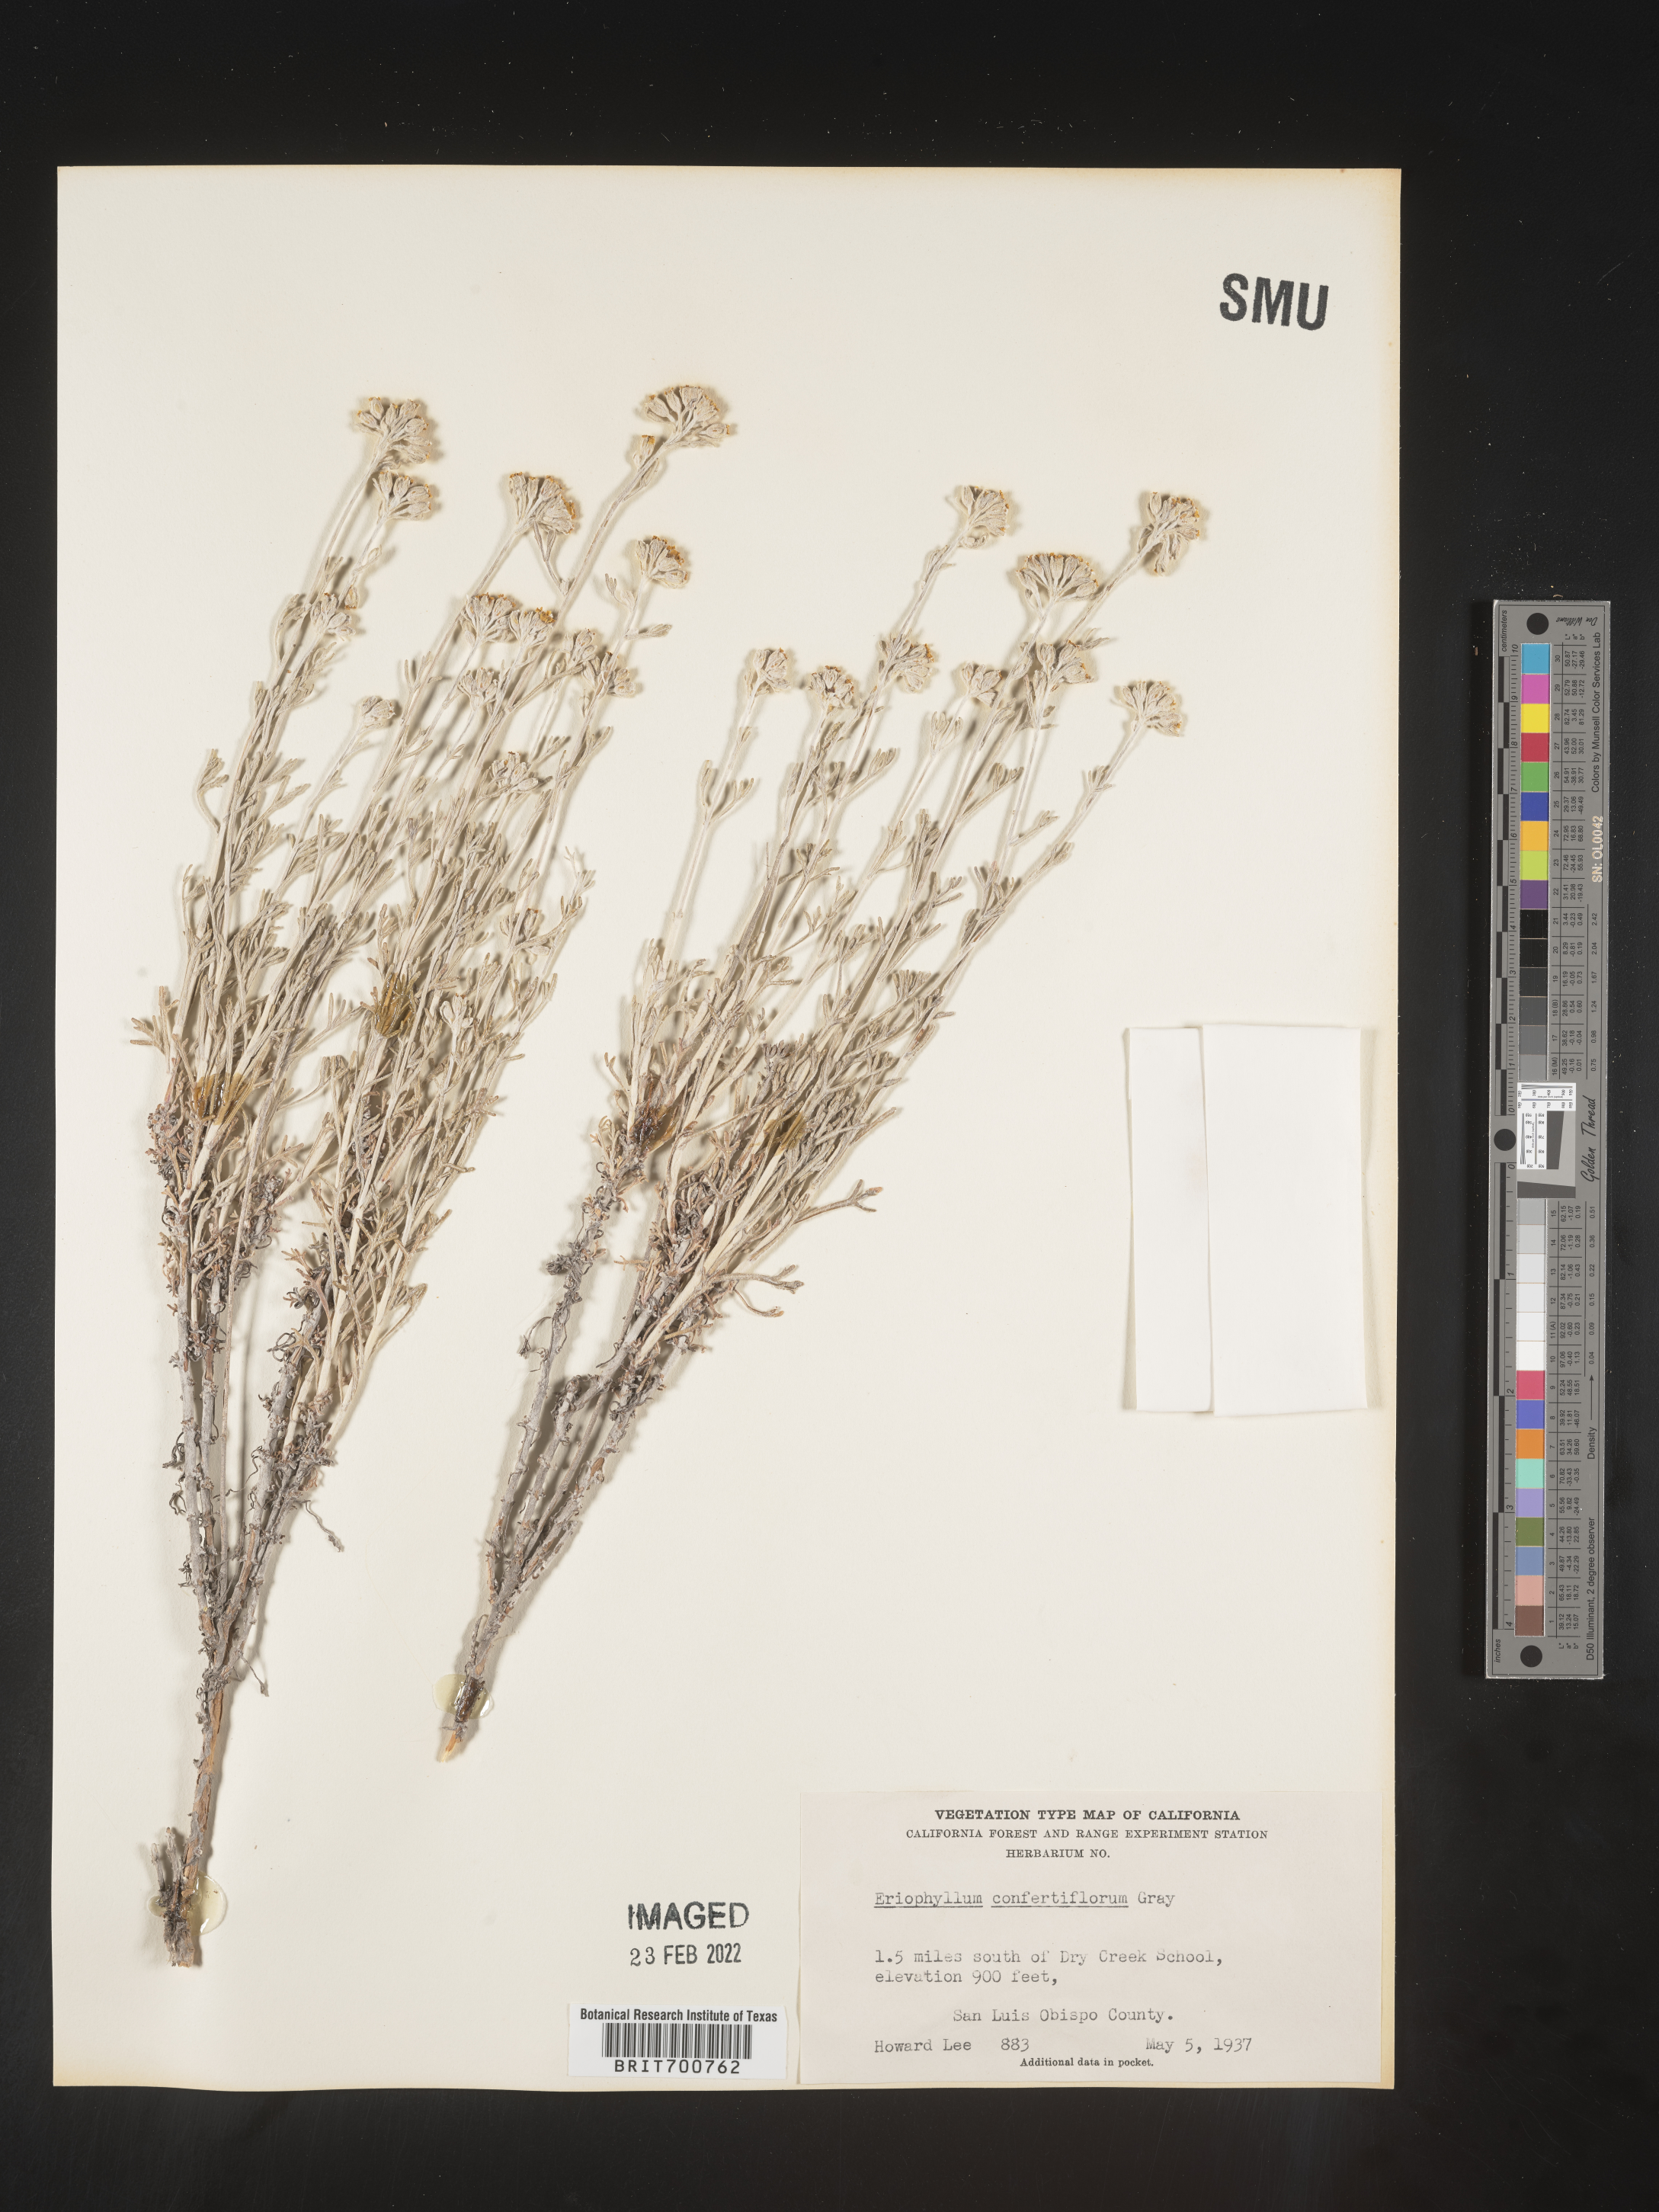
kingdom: Plantae
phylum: Tracheophyta
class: Magnoliopsida
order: Asterales
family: Asteraceae
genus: Eriophyllum
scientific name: Eriophyllum confertiflorum
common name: Golden-yarrow
